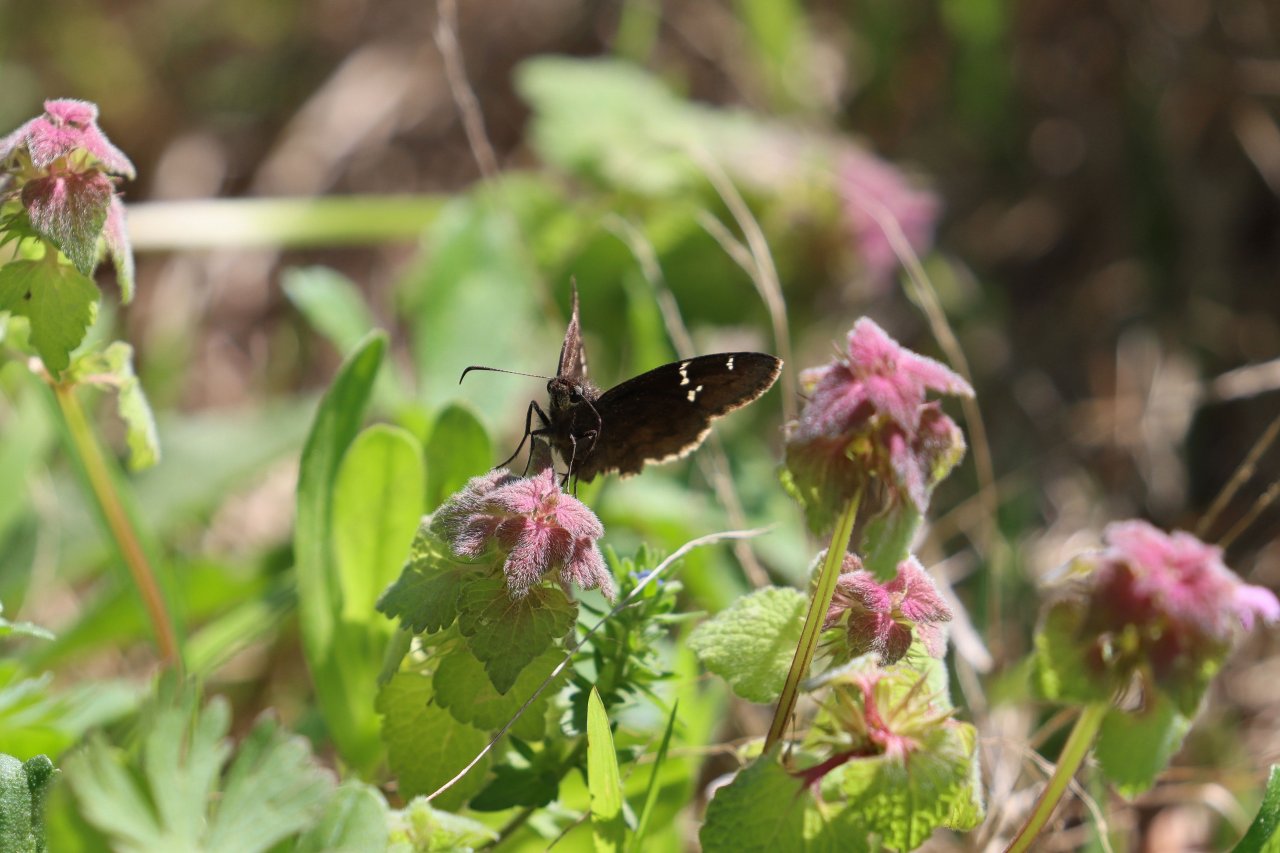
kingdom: Animalia
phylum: Arthropoda
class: Insecta
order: Lepidoptera
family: Hesperiidae
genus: Thorybes
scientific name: Thorybes mexicana
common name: Confused Cloudywing
